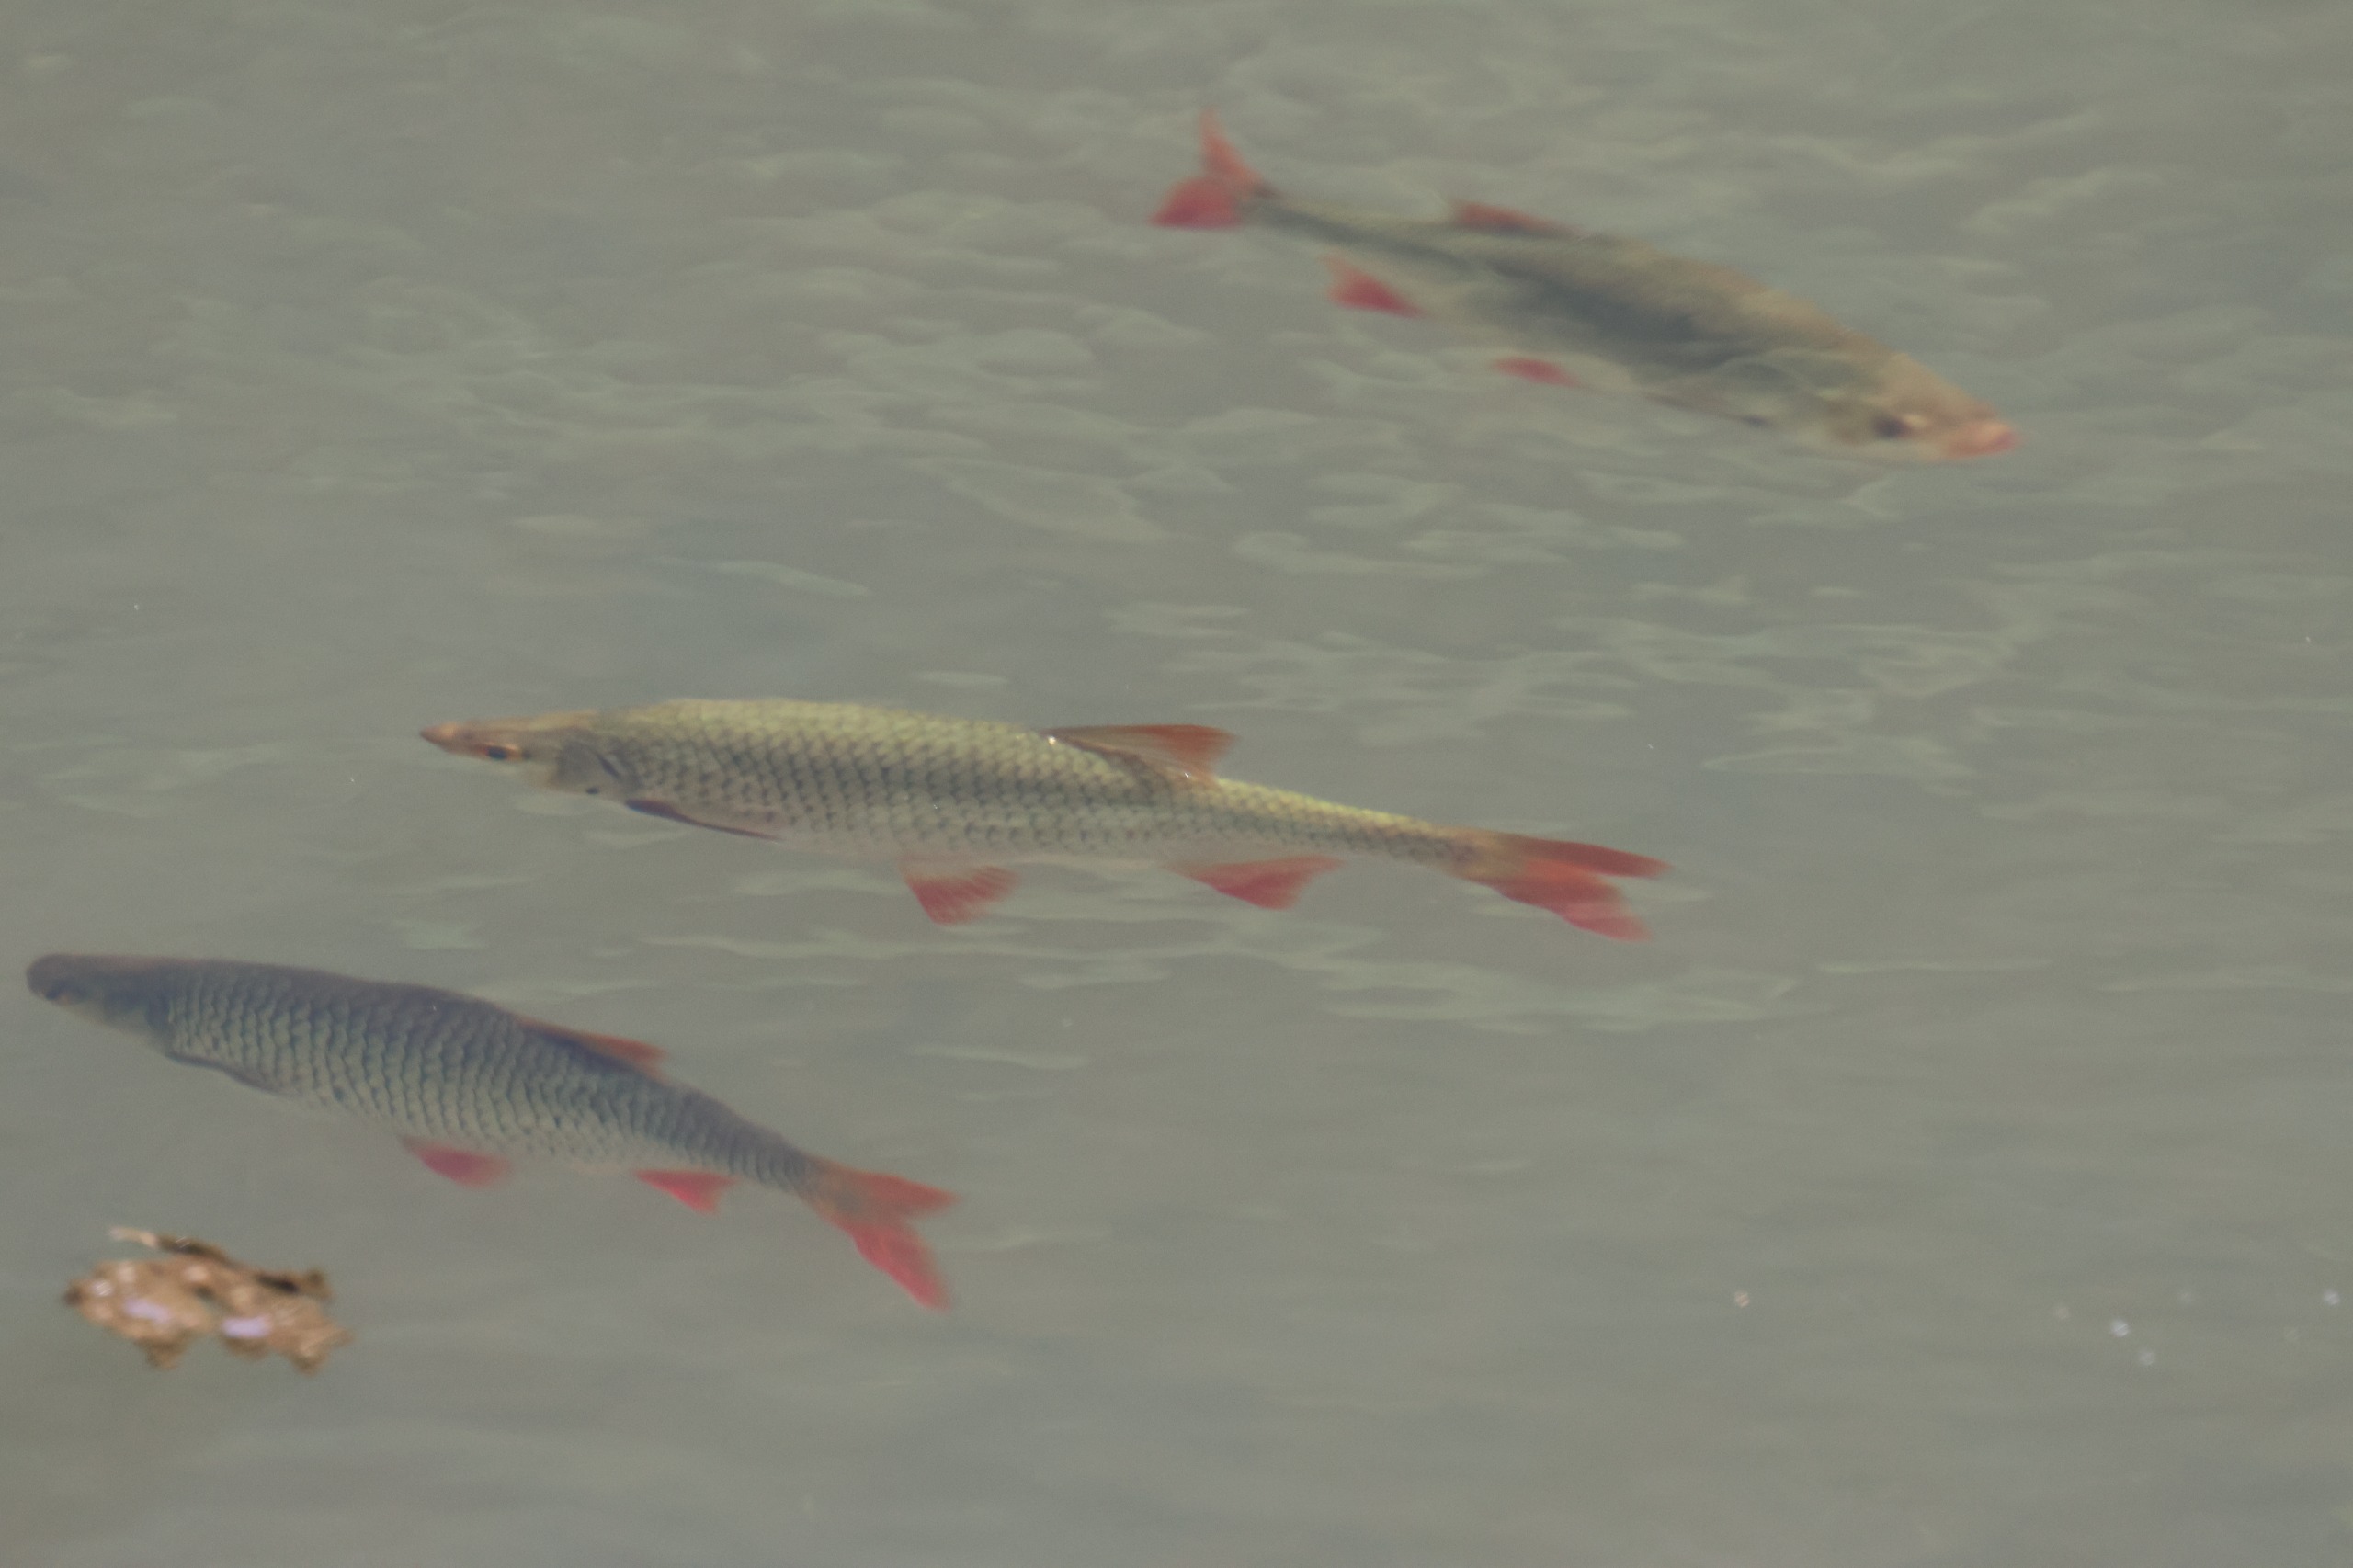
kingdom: Animalia
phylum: Chordata
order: Cypriniformes
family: Cyprinidae
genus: Scardinius
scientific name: Scardinius erythrophthalmus
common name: Rudskalle
